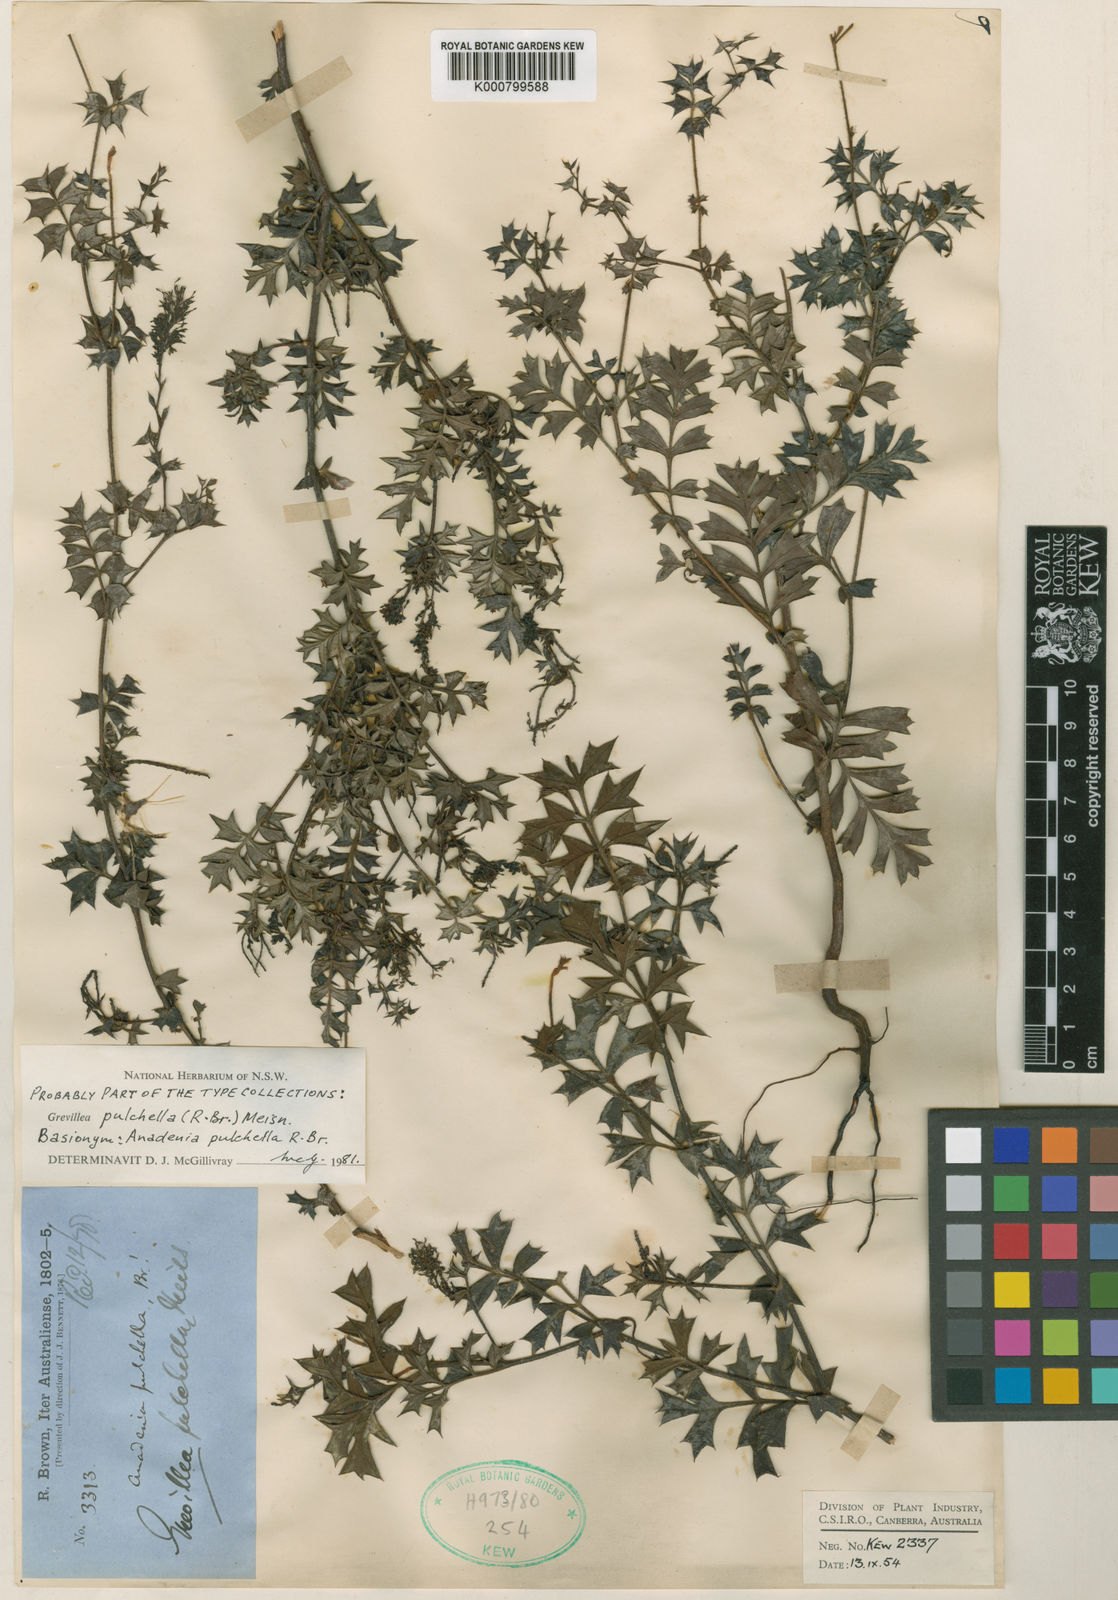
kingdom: Plantae
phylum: Tracheophyta
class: Magnoliopsida
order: Proteales
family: Proteaceae
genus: Grevillea
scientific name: Grevillea pulchella
